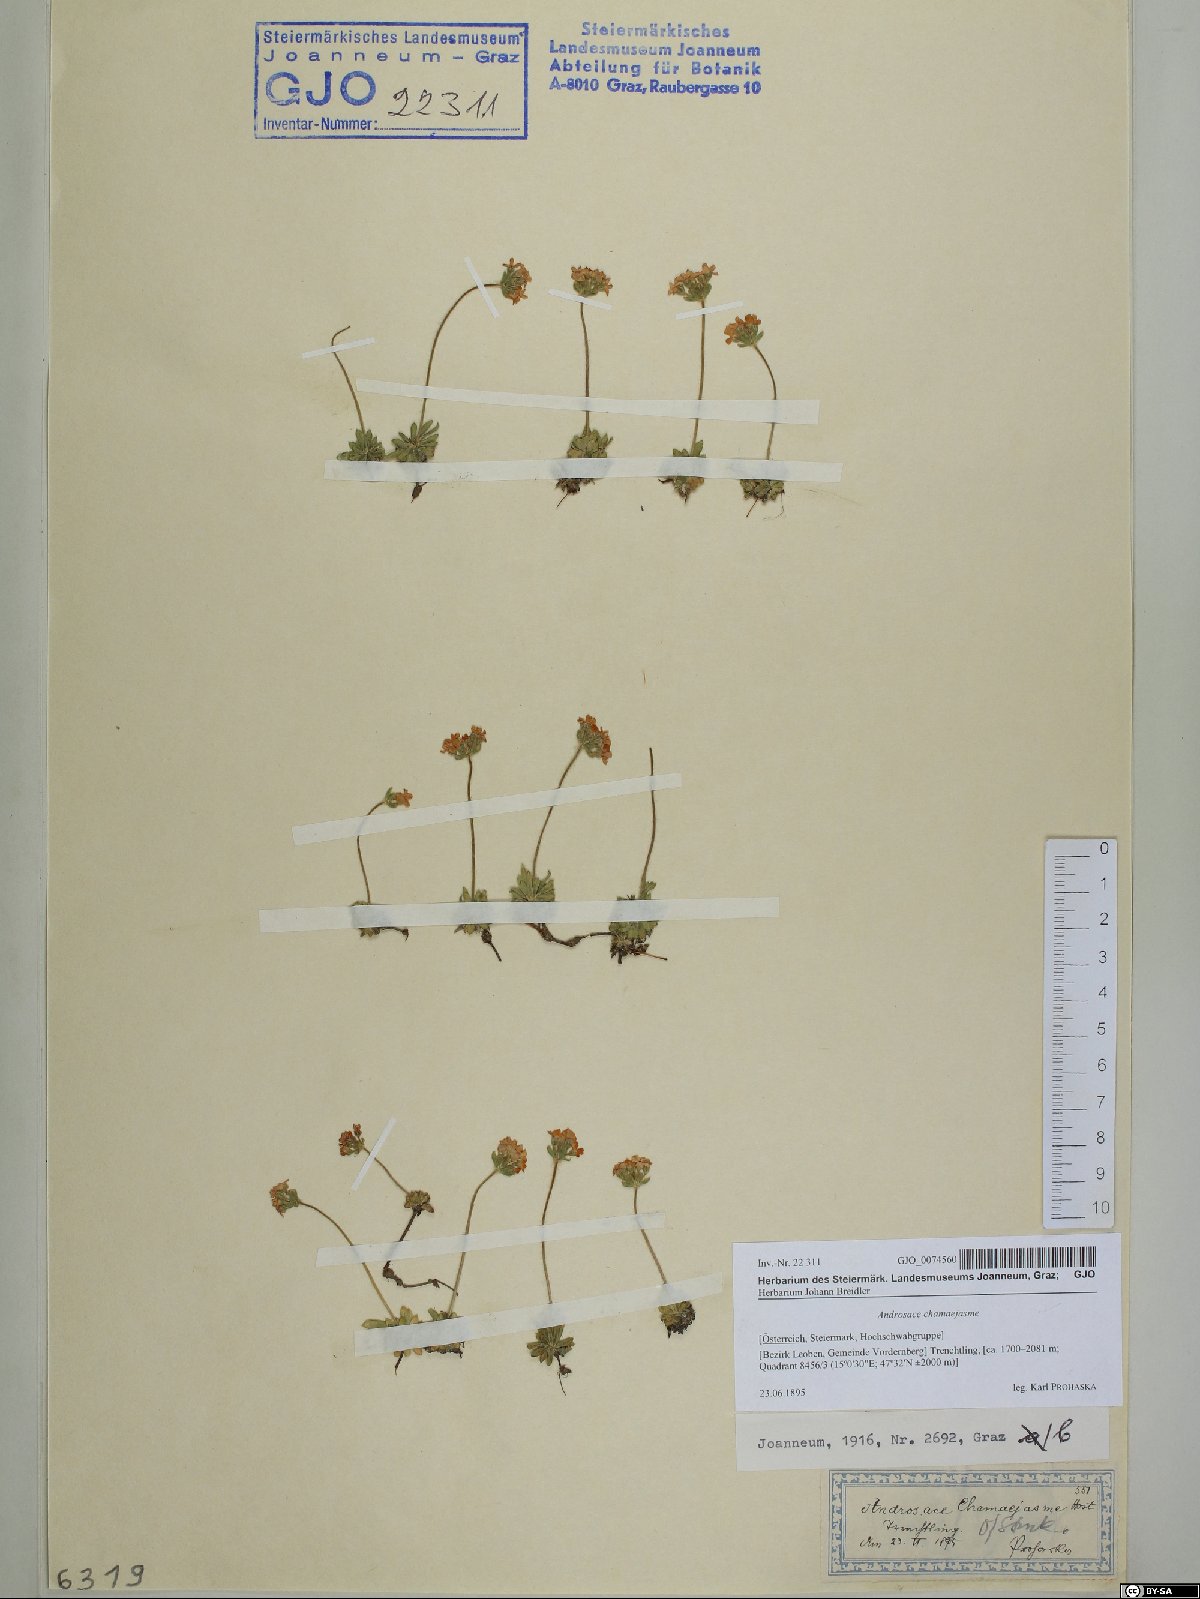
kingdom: Plantae
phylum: Tracheophyta
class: Magnoliopsida
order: Ericales
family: Primulaceae
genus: Androsace
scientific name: Androsace chamaejasme
